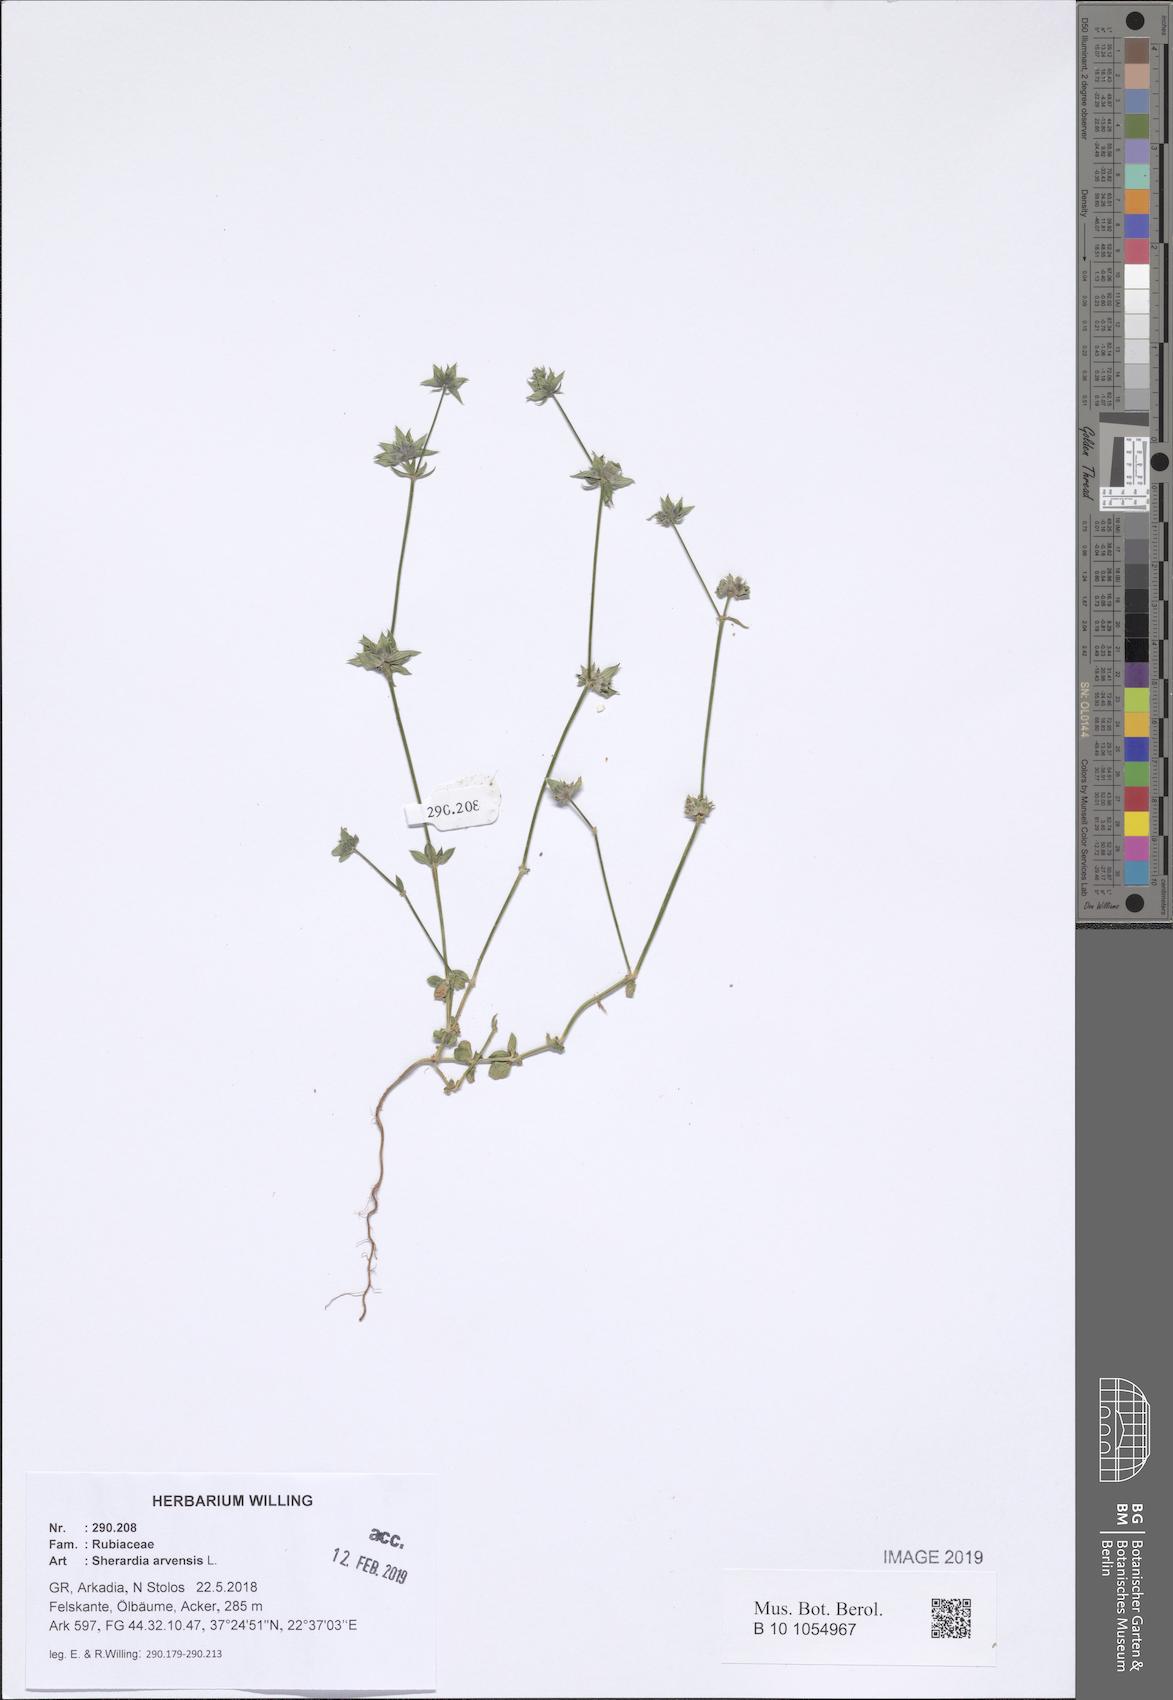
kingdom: Plantae
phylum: Tracheophyta
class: Magnoliopsida
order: Gentianales
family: Rubiaceae
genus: Sherardia
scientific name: Sherardia arvensis
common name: Field madder
